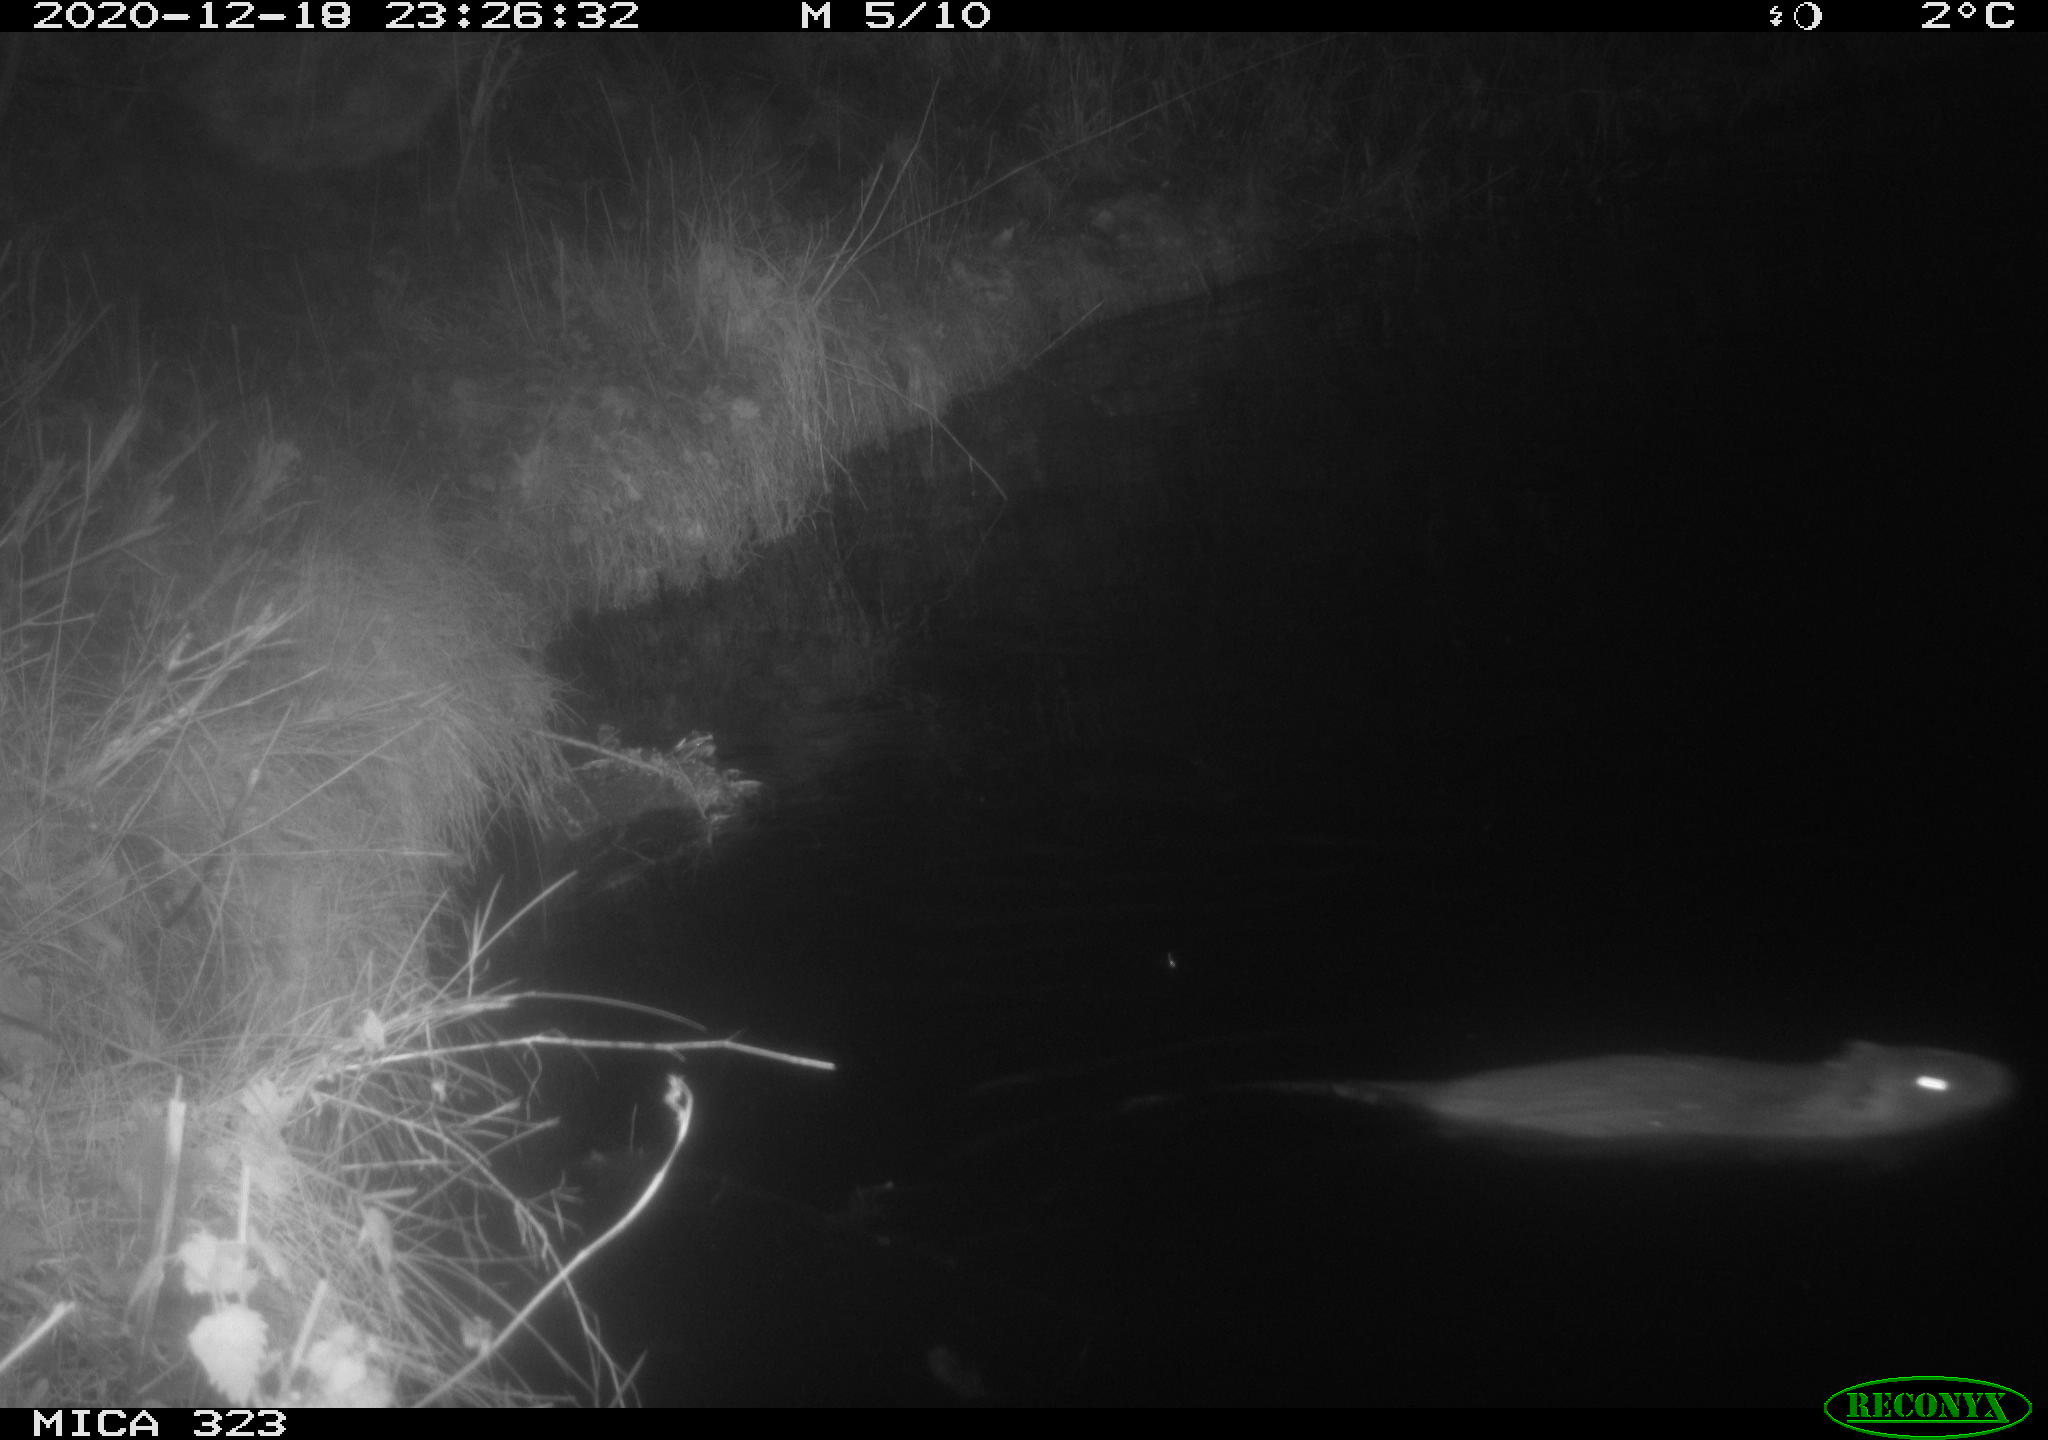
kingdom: Animalia
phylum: Chordata
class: Mammalia
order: Rodentia
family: Myocastoridae
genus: Myocastor
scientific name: Myocastor coypus
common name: Coypu
